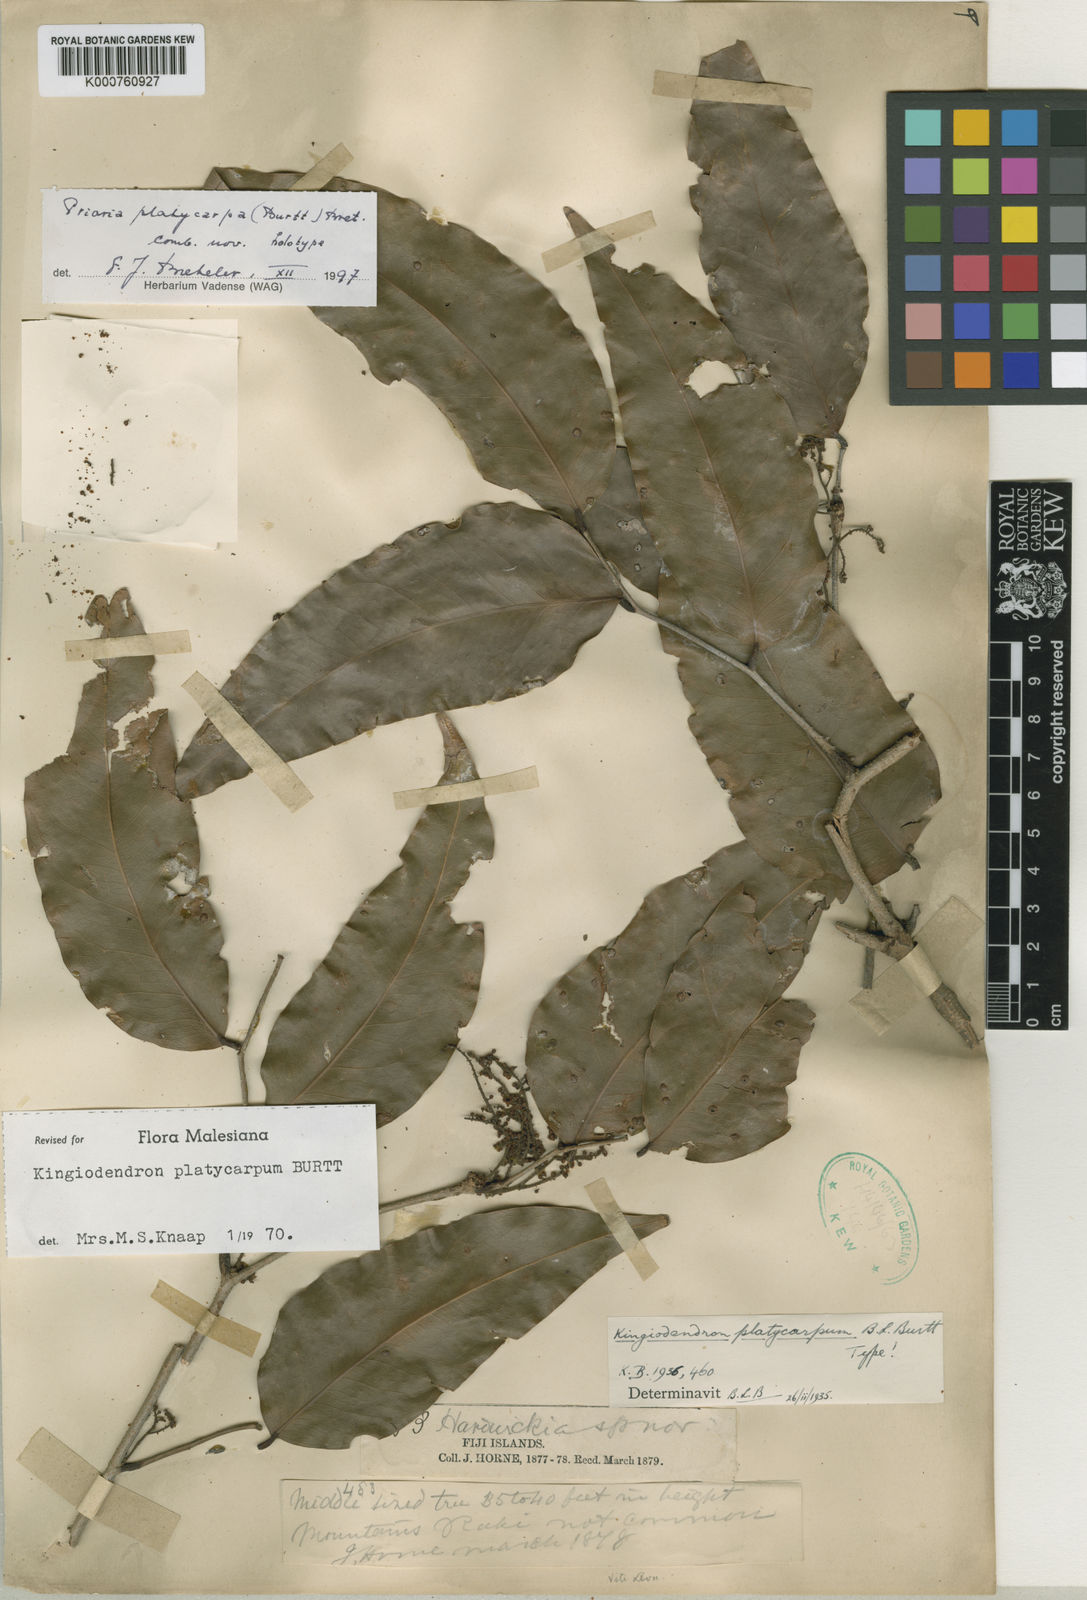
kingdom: Plantae
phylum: Tracheophyta
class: Magnoliopsida
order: Fabales
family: Fabaceae
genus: Prioria
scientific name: Prioria platycarpa
